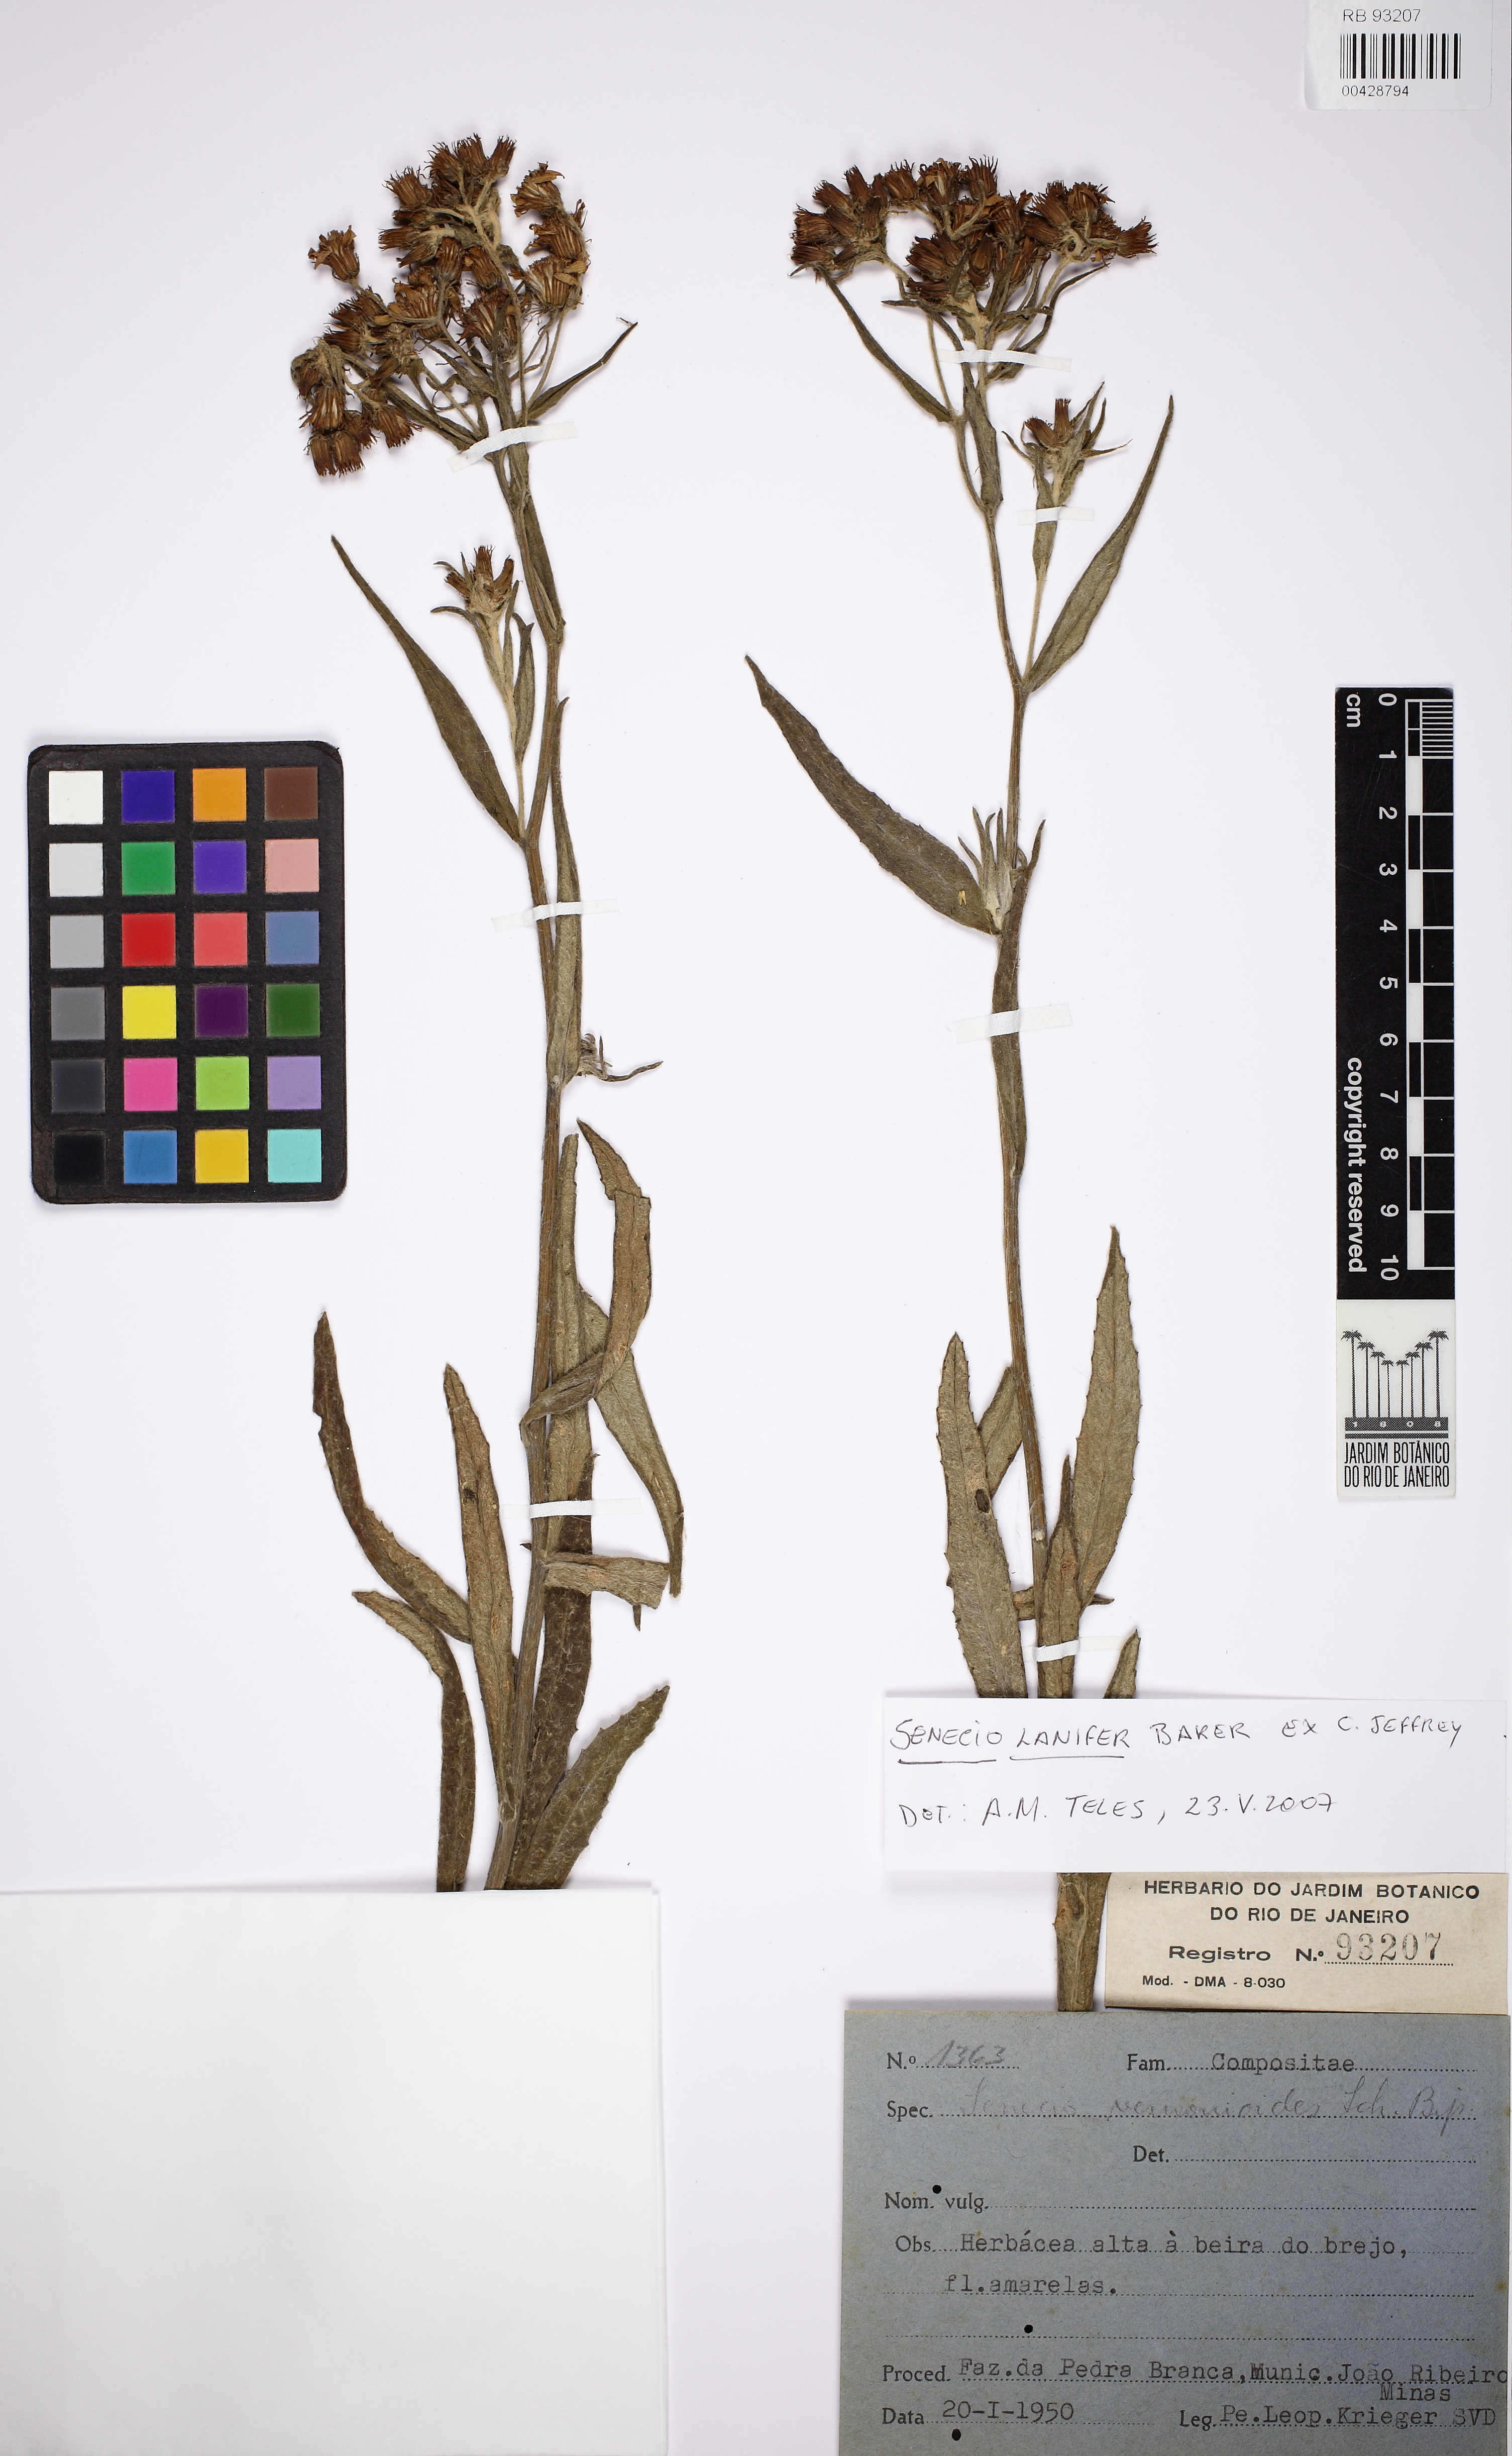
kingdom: Plantae
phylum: Tracheophyta
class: Magnoliopsida
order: Asterales
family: Asteraceae
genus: Senecio
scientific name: Senecio lanifer
